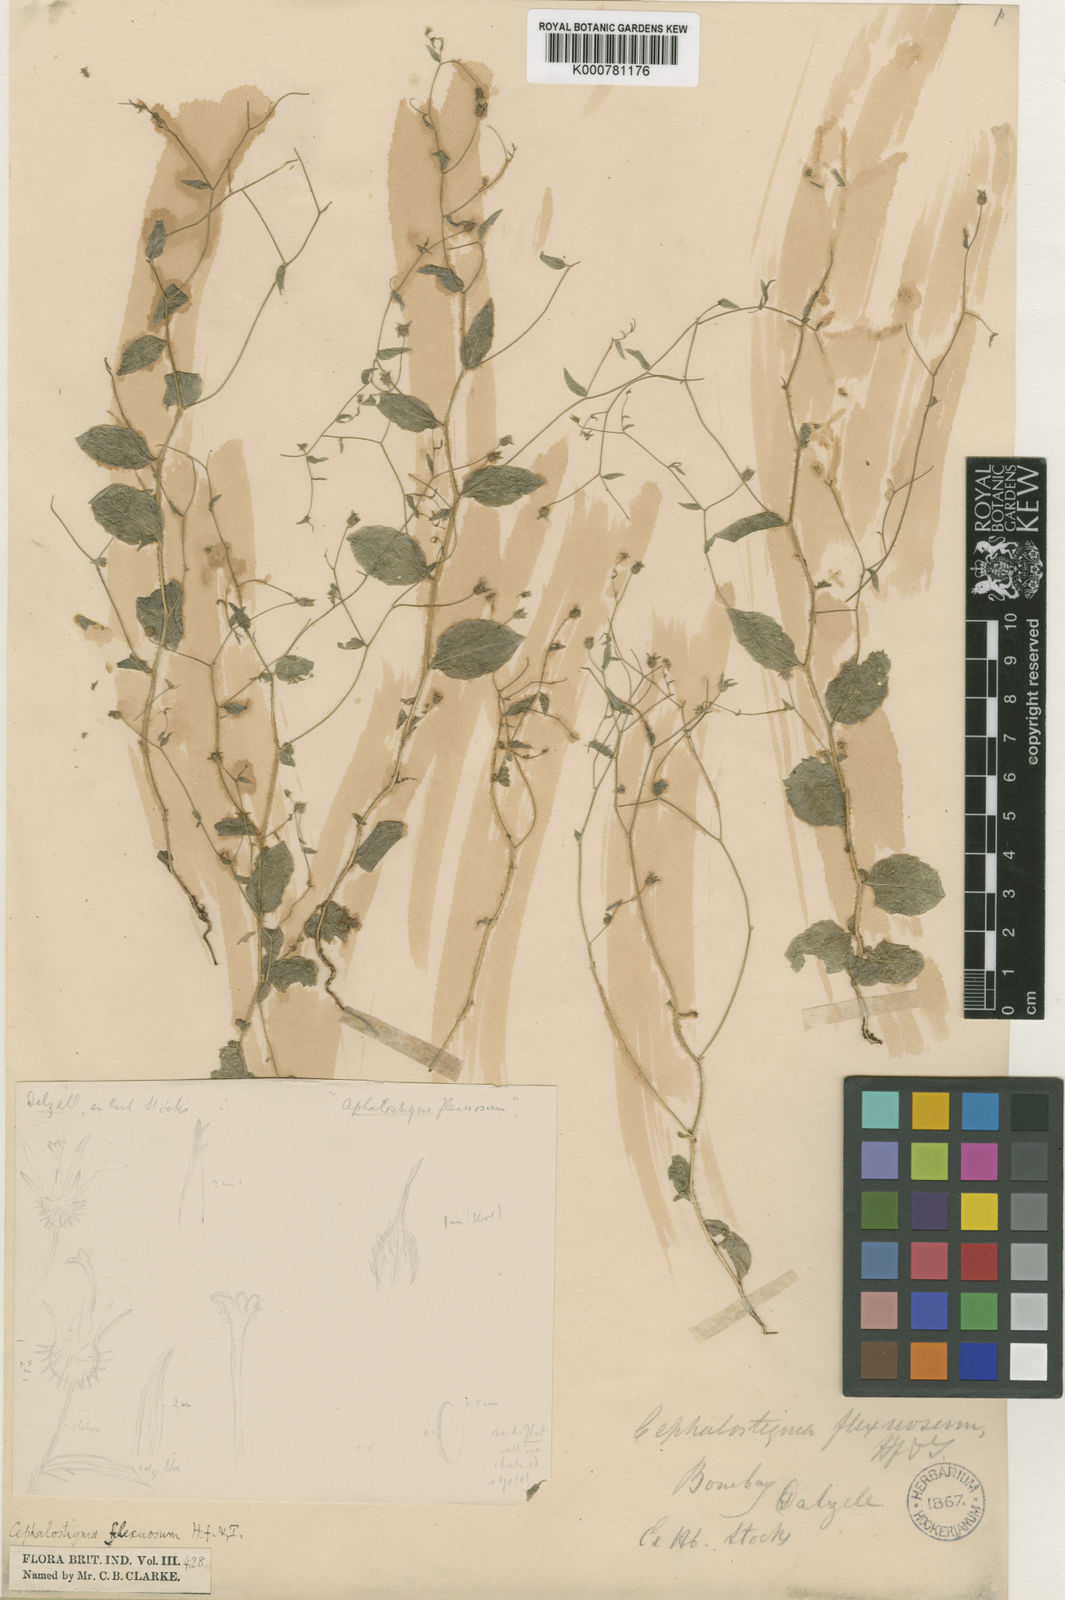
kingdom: Plantae
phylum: Tracheophyta
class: Magnoliopsida
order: Asterales
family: Campanulaceae
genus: Wahlenbergia
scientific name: Wahlenbergia flexuosa
